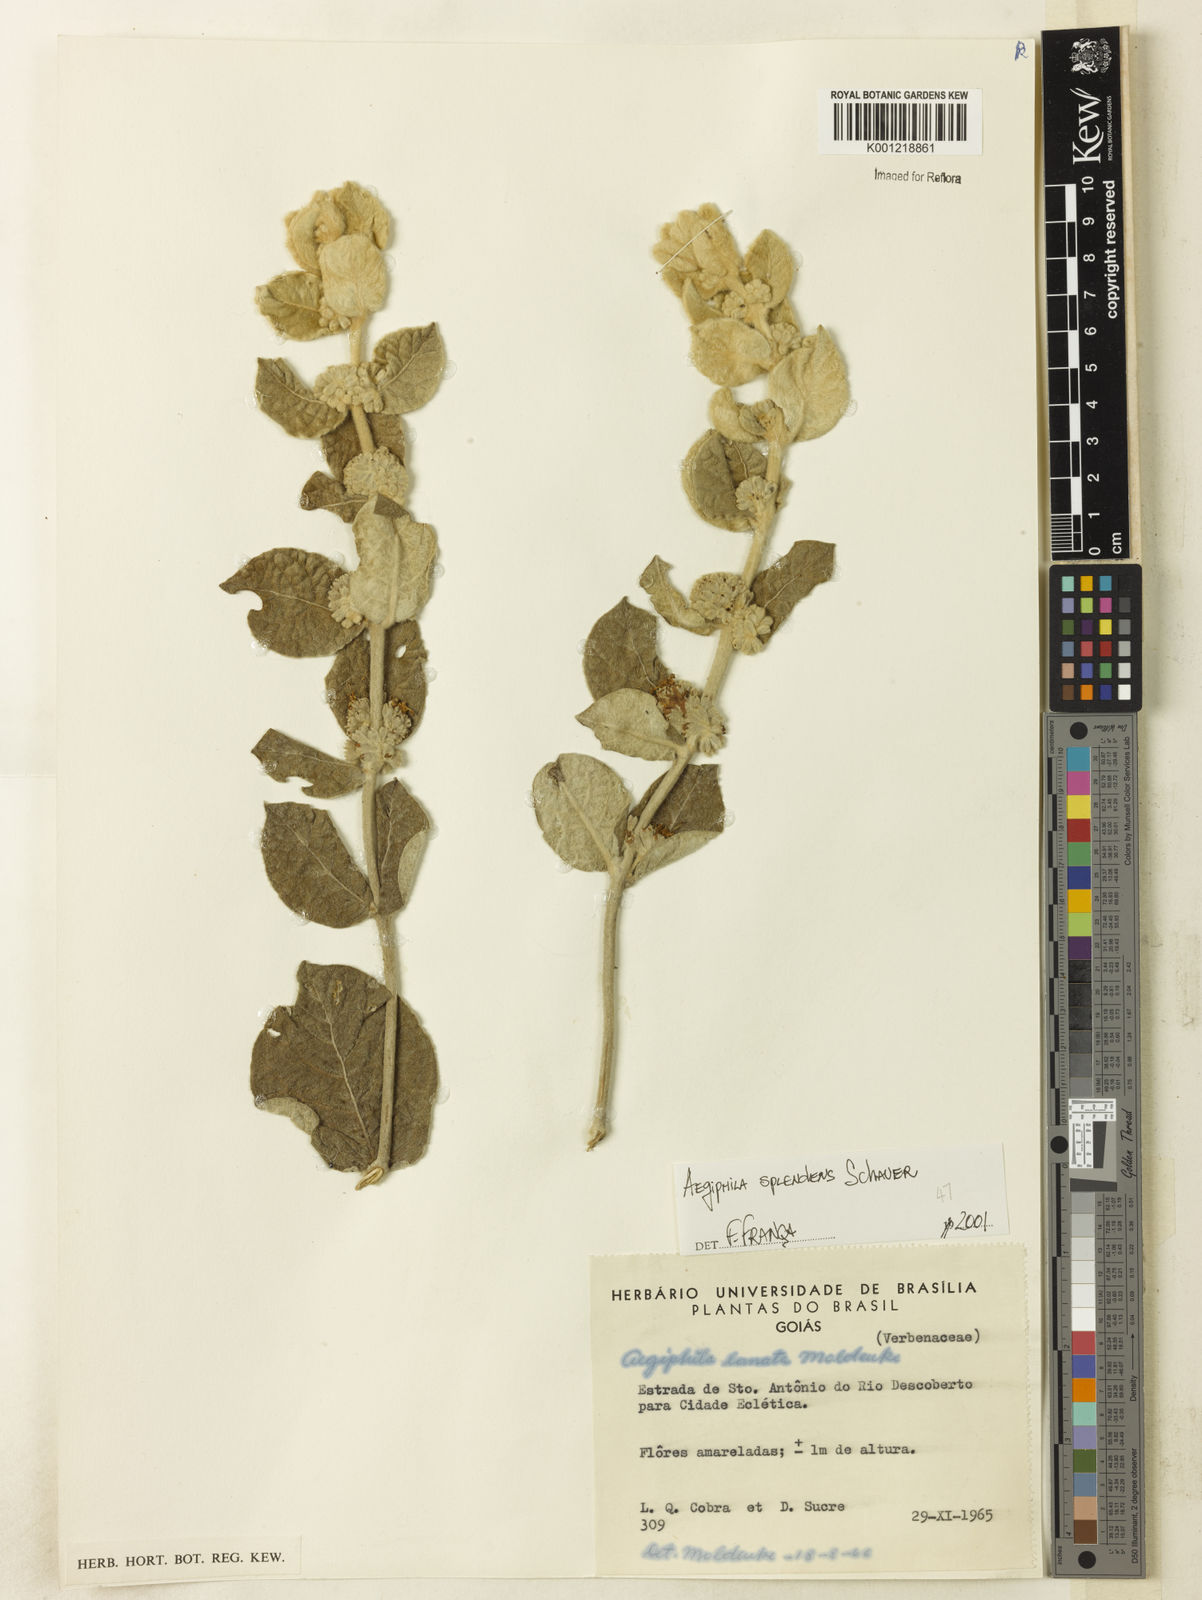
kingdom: Plantae
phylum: Tracheophyta
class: Magnoliopsida
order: Lamiales
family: Lamiaceae
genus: Aegiphila
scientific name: Aegiphila verticillata
